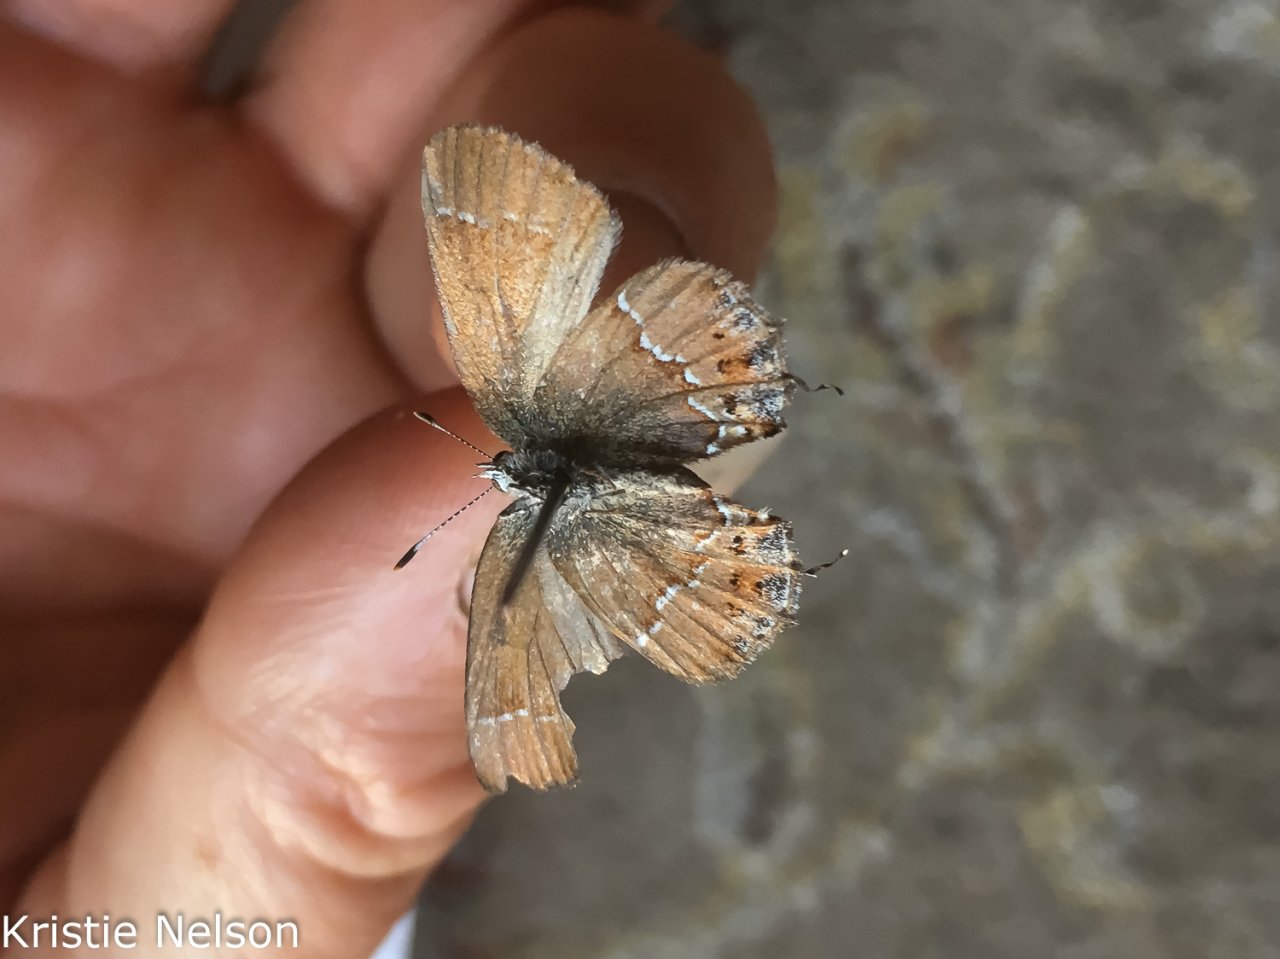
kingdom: Animalia
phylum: Arthropoda
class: Insecta
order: Lepidoptera
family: Lycaenidae
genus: Mitoura
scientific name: Mitoura gryneus
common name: Juniper Hairstreak
